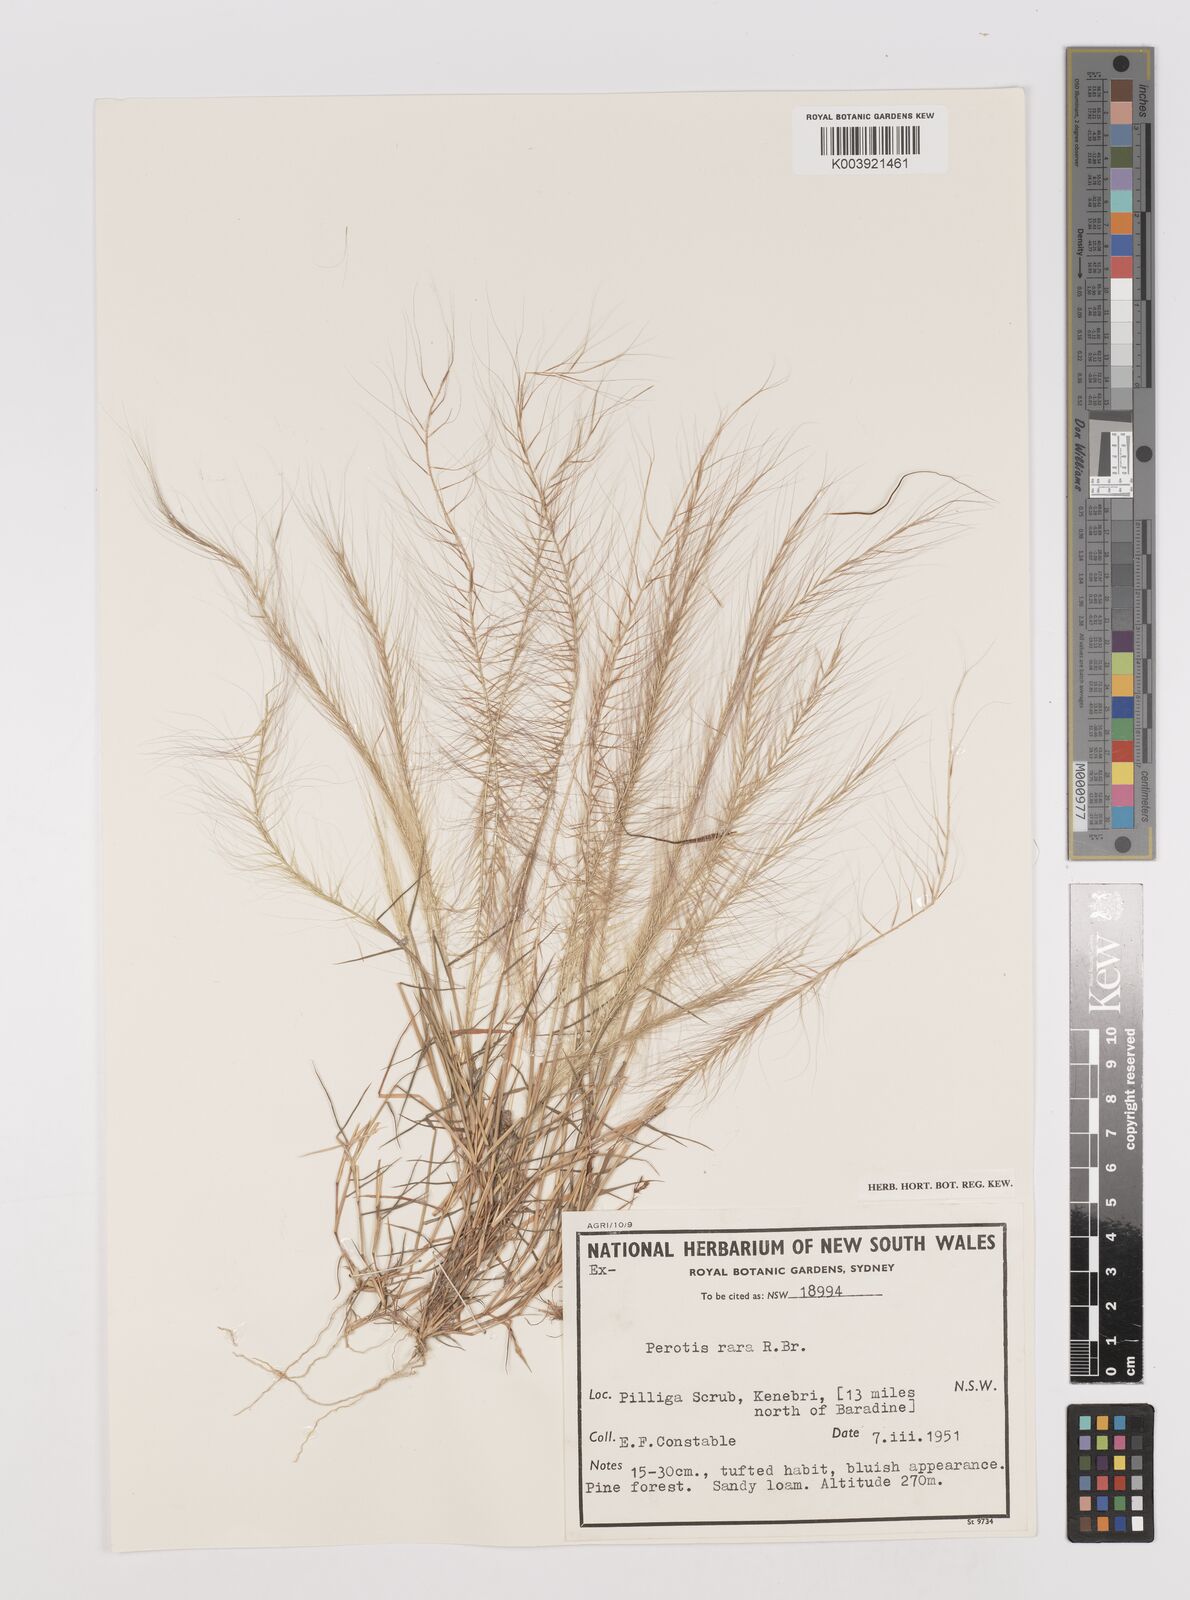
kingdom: Plantae
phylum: Tracheophyta
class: Liliopsida
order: Poales
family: Poaceae
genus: Perotis
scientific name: Perotis rara
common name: Comet grass
